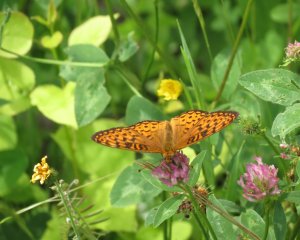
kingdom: Animalia
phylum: Arthropoda
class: Insecta
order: Lepidoptera
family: Nymphalidae
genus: Speyeria
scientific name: Speyeria atlantis
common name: Atlantis Fritillary
